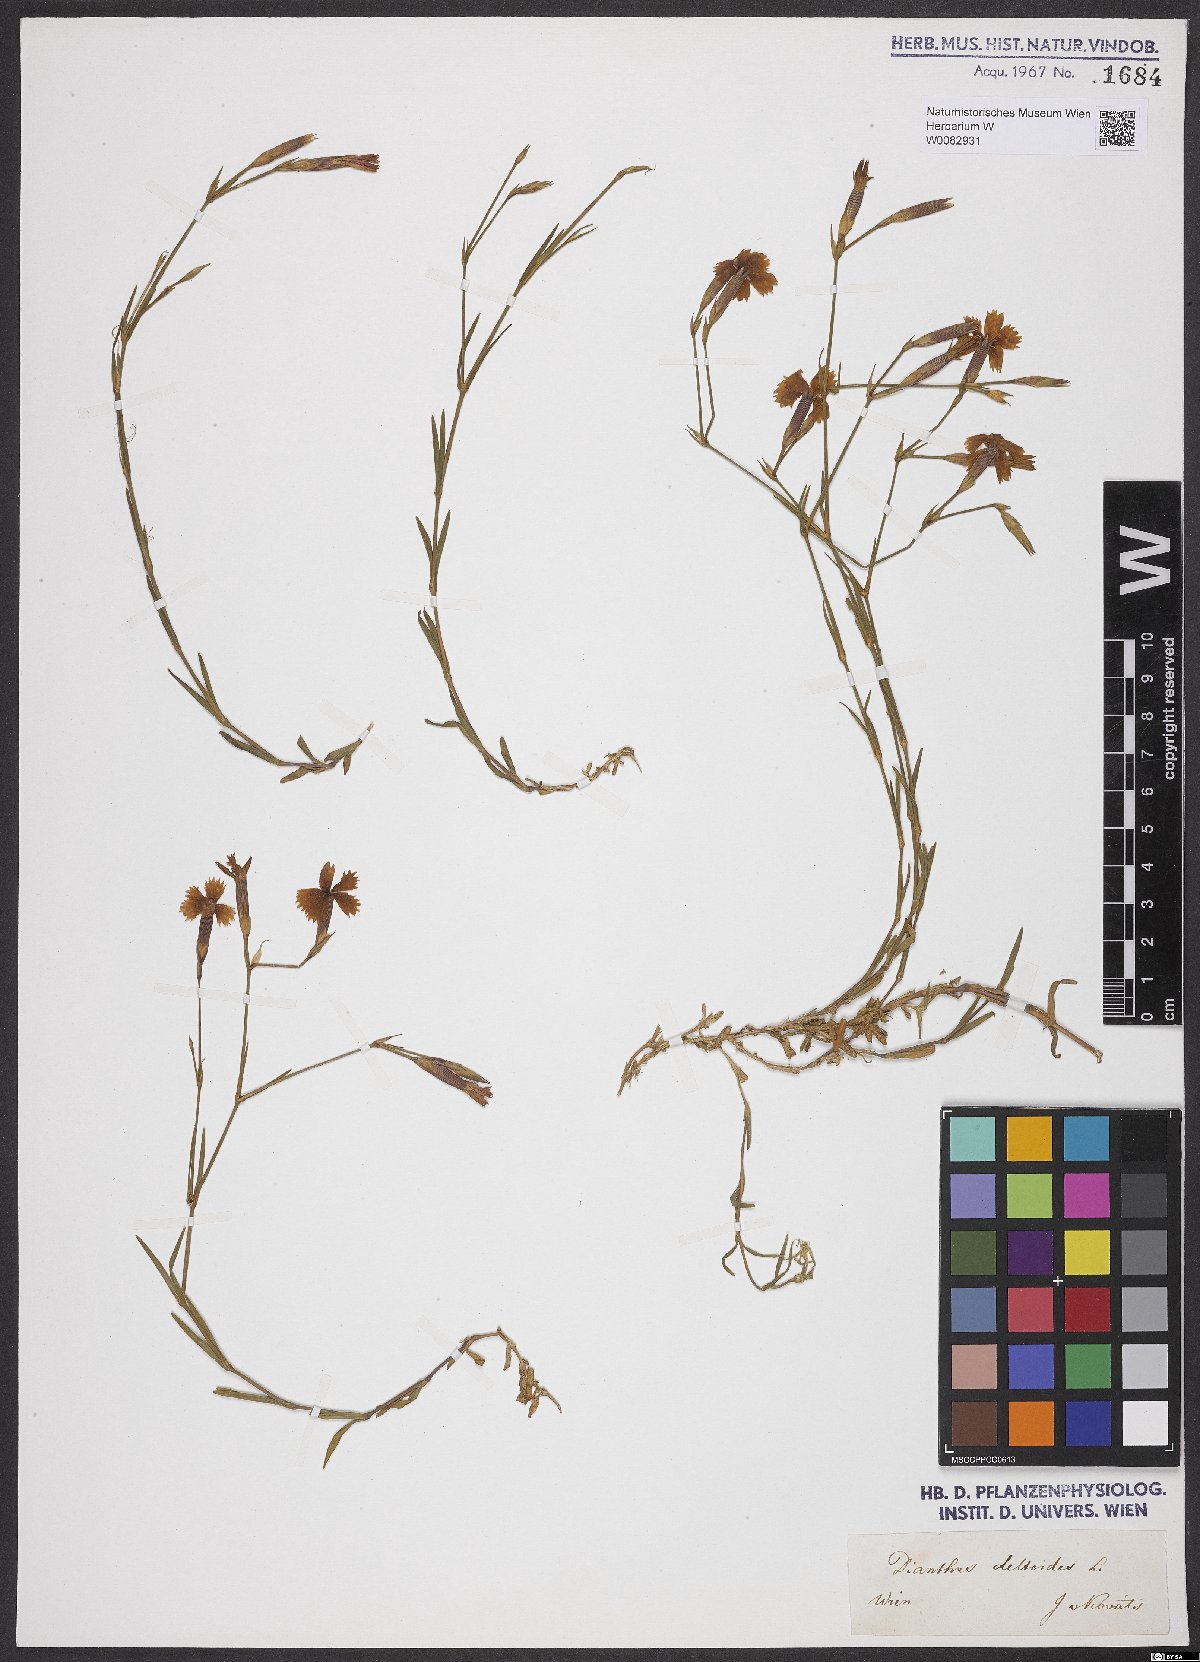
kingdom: Plantae
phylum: Tracheophyta
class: Magnoliopsida
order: Caryophyllales
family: Caryophyllaceae
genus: Dianthus
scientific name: Dianthus deltoides
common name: Maiden pink
